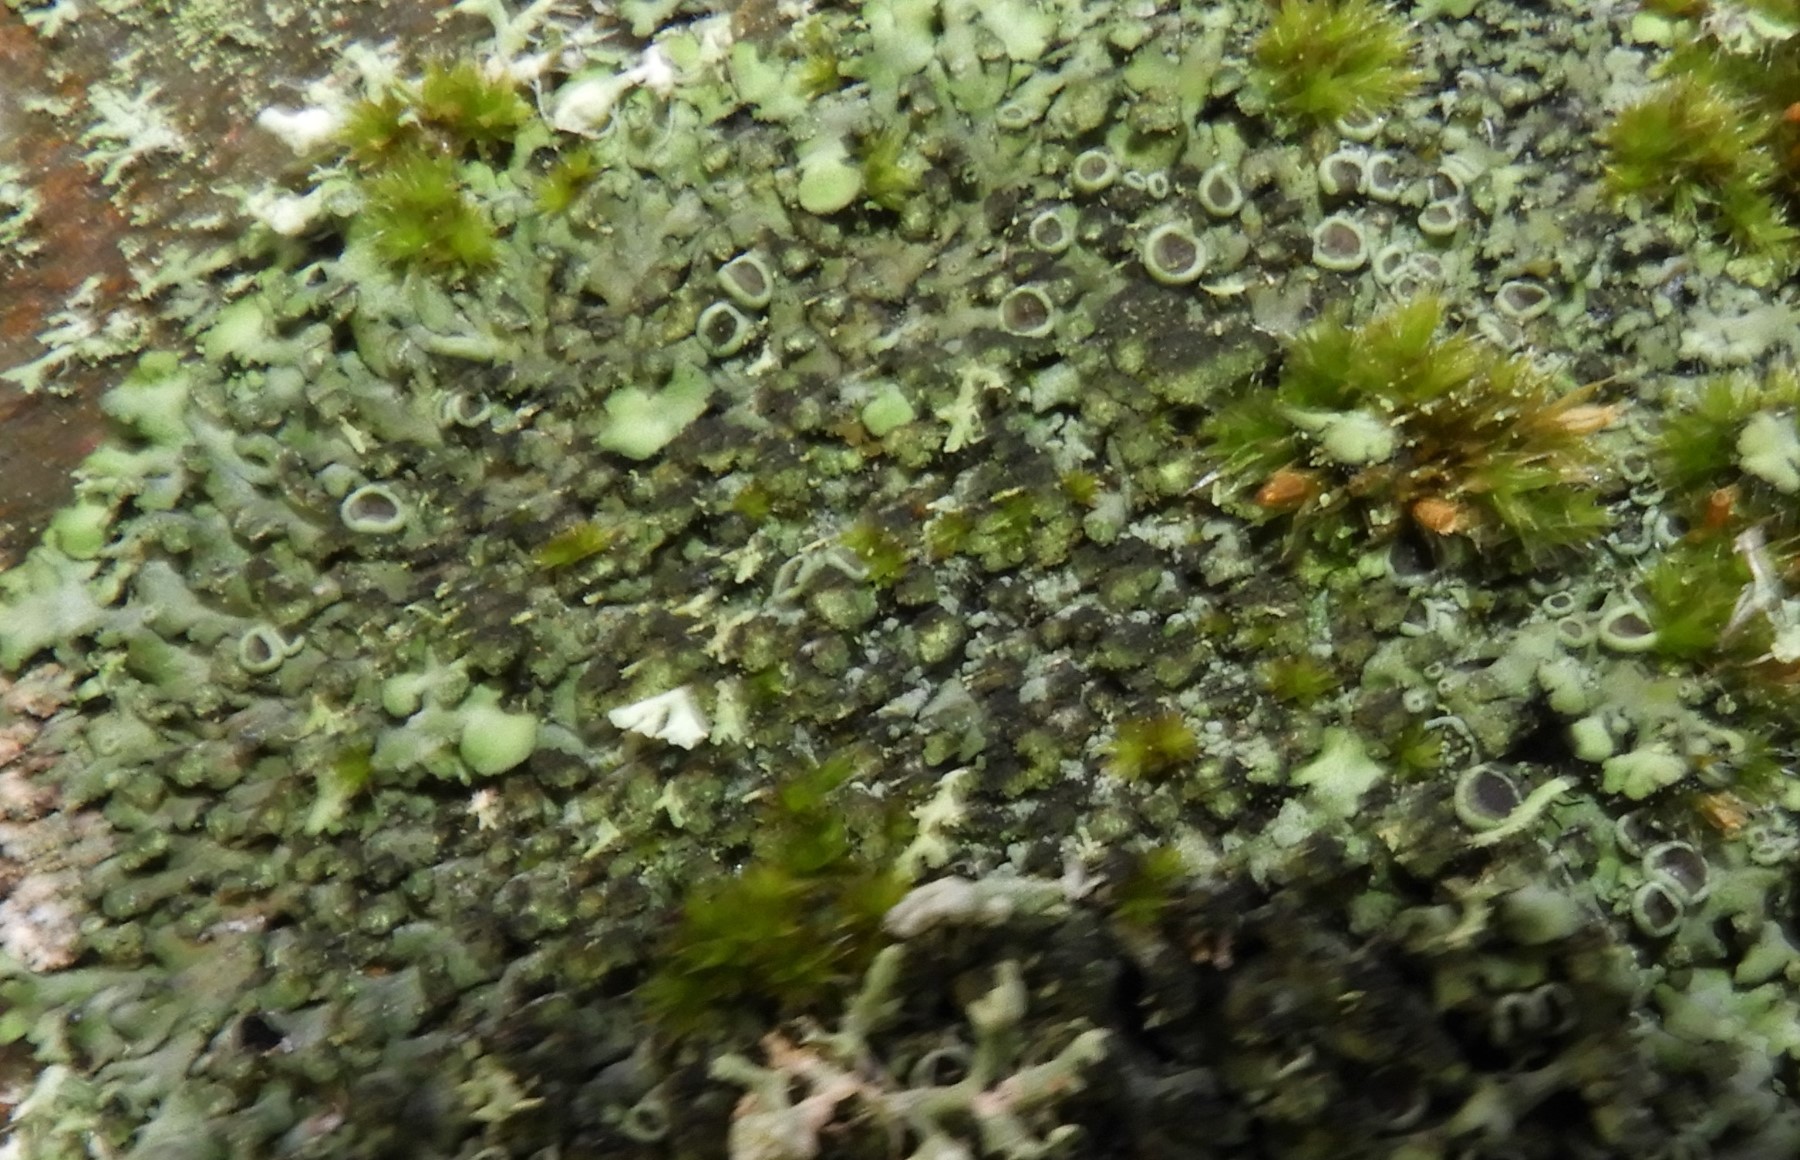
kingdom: Fungi
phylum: Ascomycota
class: Lecanoromycetes
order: Caliciales
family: Physciaceae
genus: Phaeophyscia
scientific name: Phaeophyscia orbicularis
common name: grågrøn rosetlav
